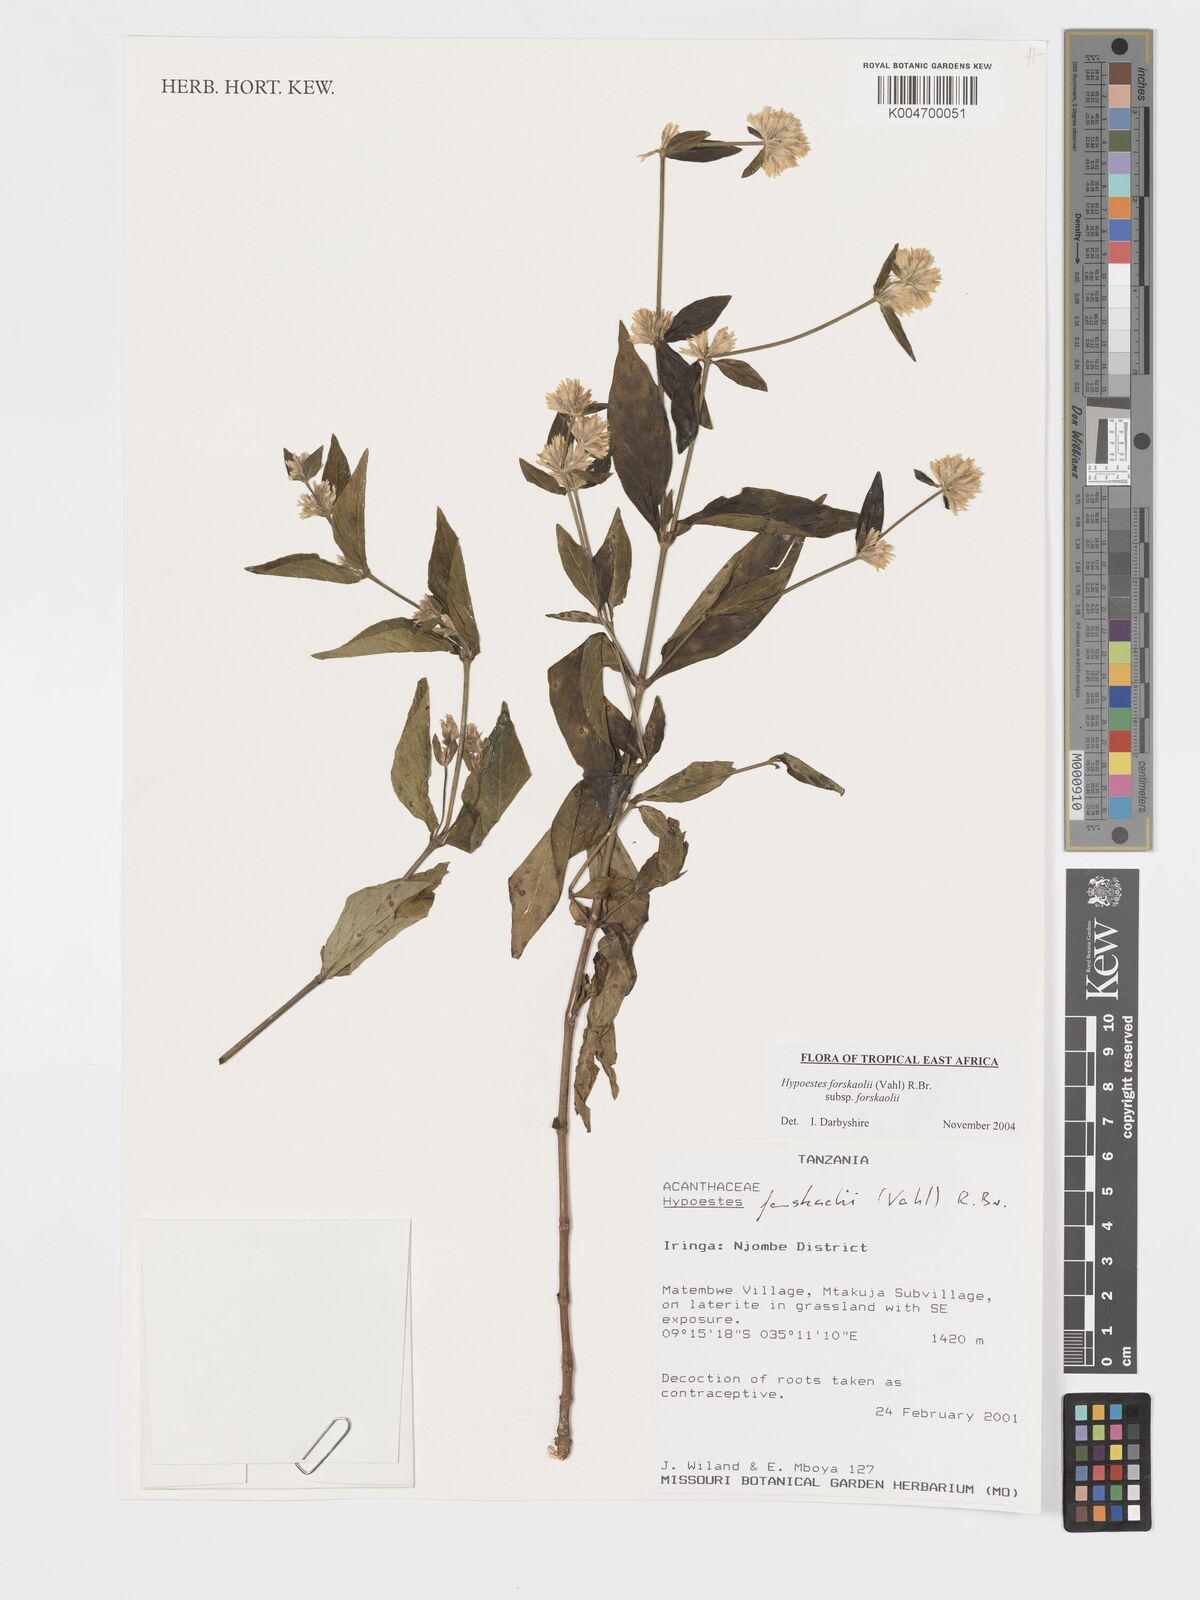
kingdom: Plantae
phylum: Tracheophyta
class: Magnoliopsida
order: Lamiales
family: Acanthaceae
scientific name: Acanthaceae
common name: Acanthaceae
